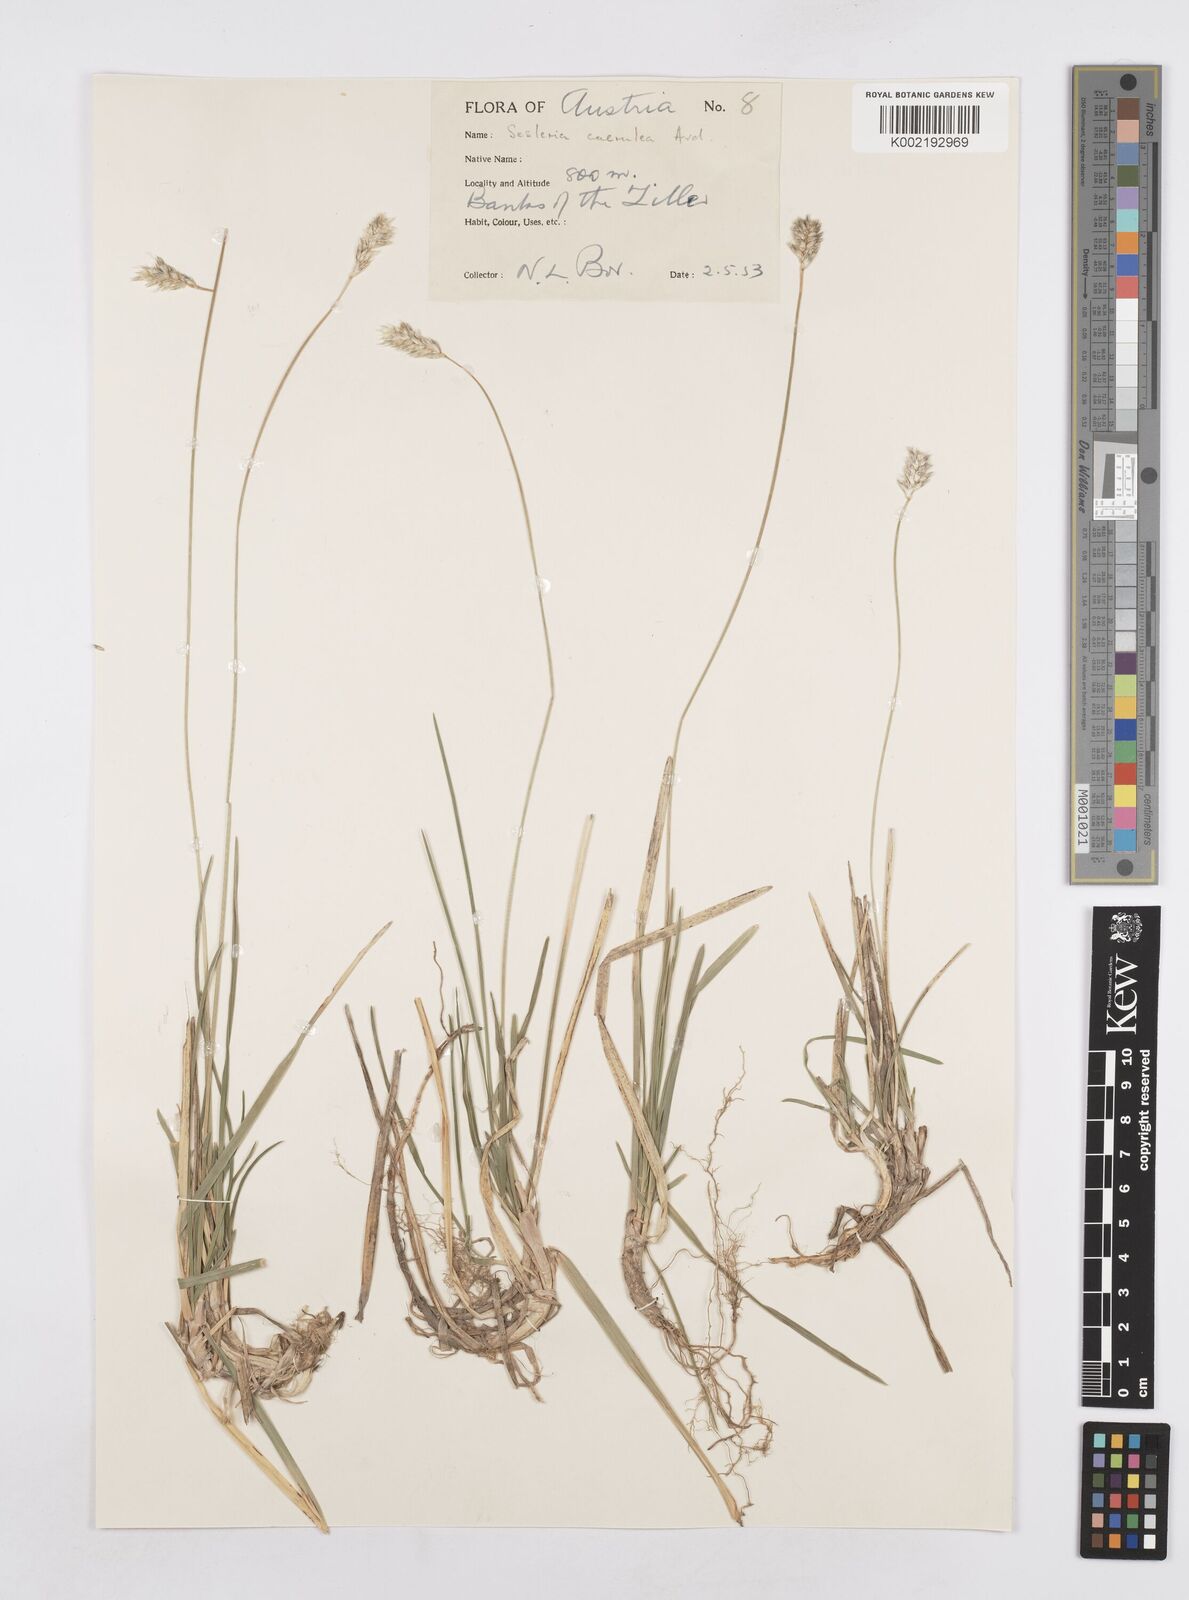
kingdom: Plantae
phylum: Tracheophyta
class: Liliopsida
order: Poales
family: Poaceae
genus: Sesleria
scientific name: Sesleria caerulea
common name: Blue moor-grass
